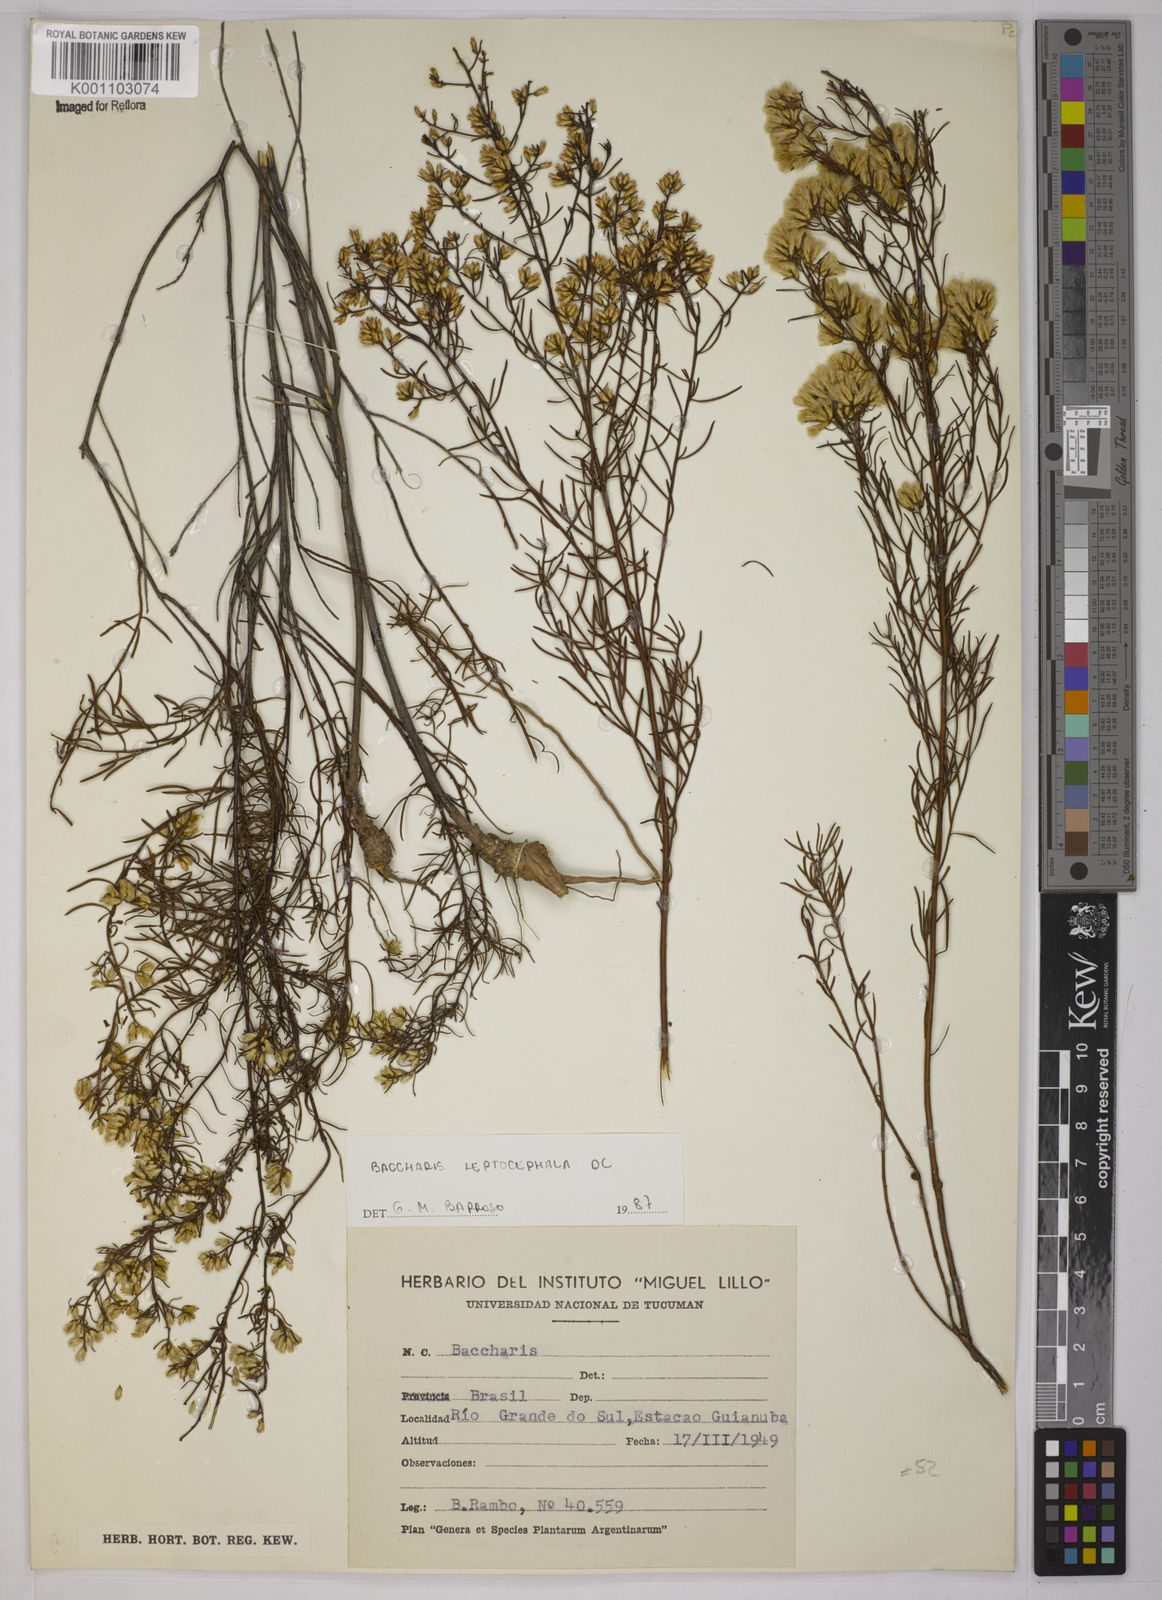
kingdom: Plantae
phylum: Tracheophyta
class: Magnoliopsida
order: Asterales
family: Asteraceae
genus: Baccharis
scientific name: Baccharis leptocephala
